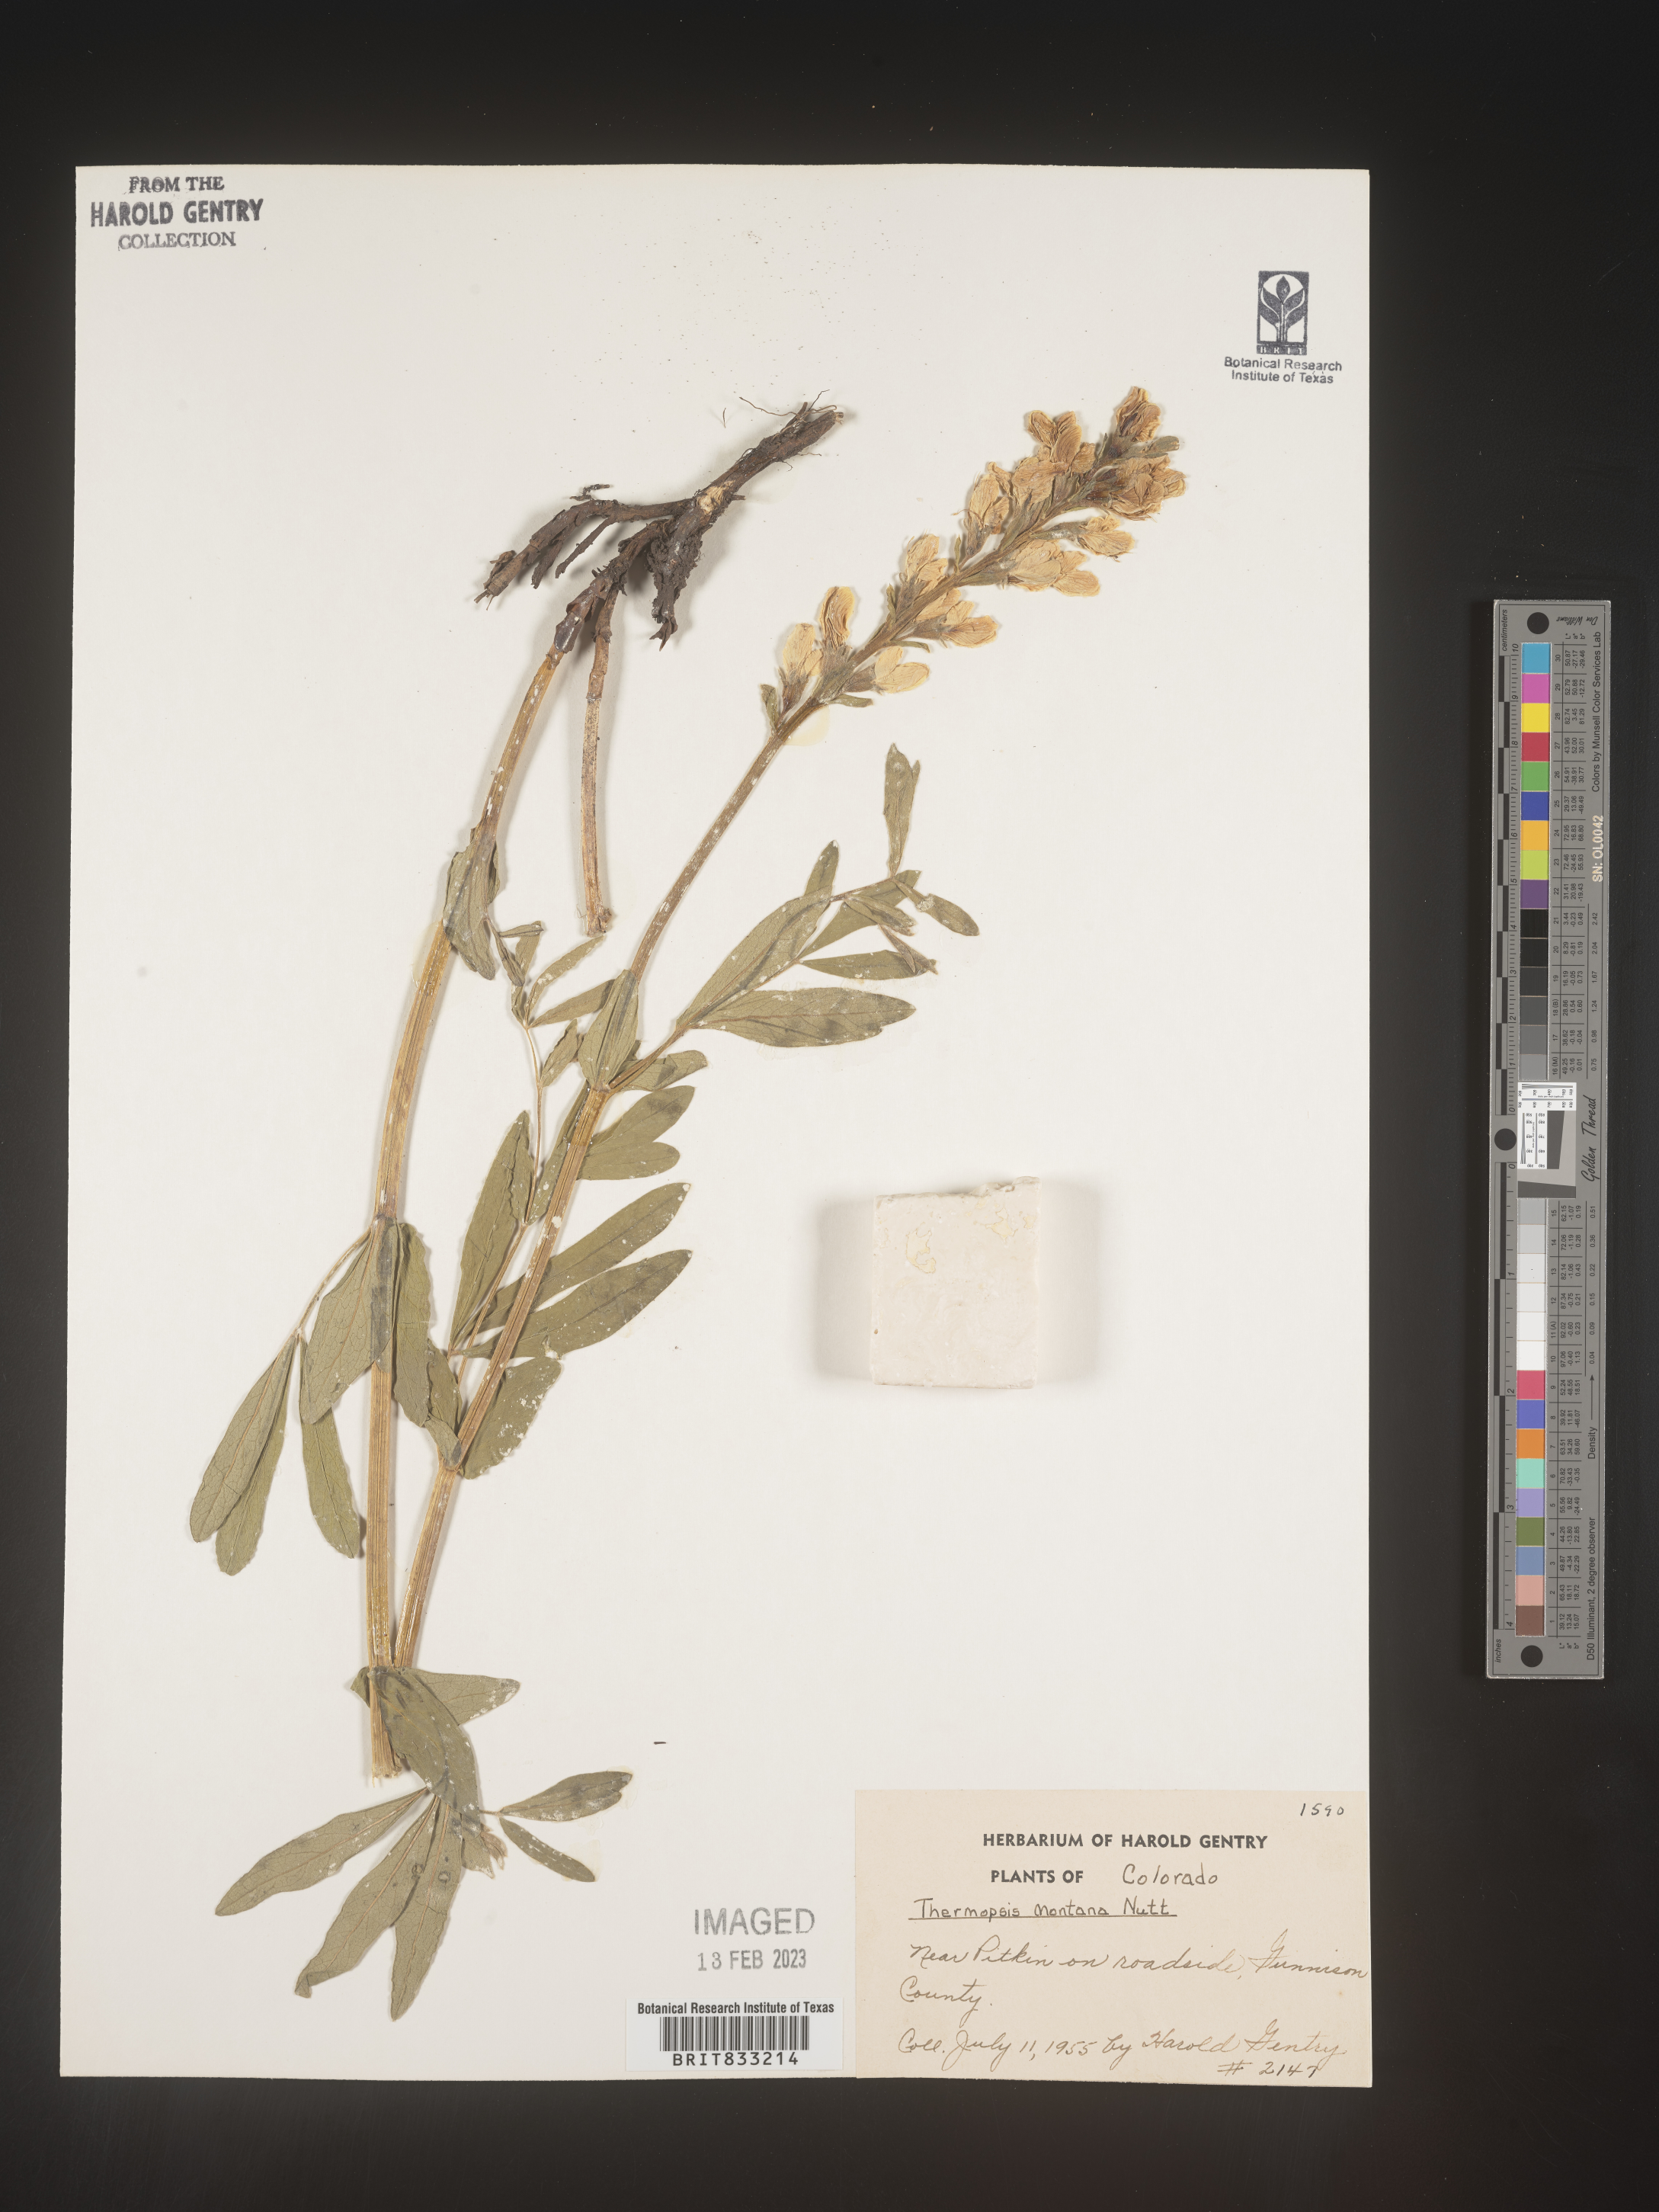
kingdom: Plantae
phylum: Tracheophyta
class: Magnoliopsida
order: Fabales
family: Fabaceae
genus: Thermopsis
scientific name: Thermopsis montana
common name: False lupin
